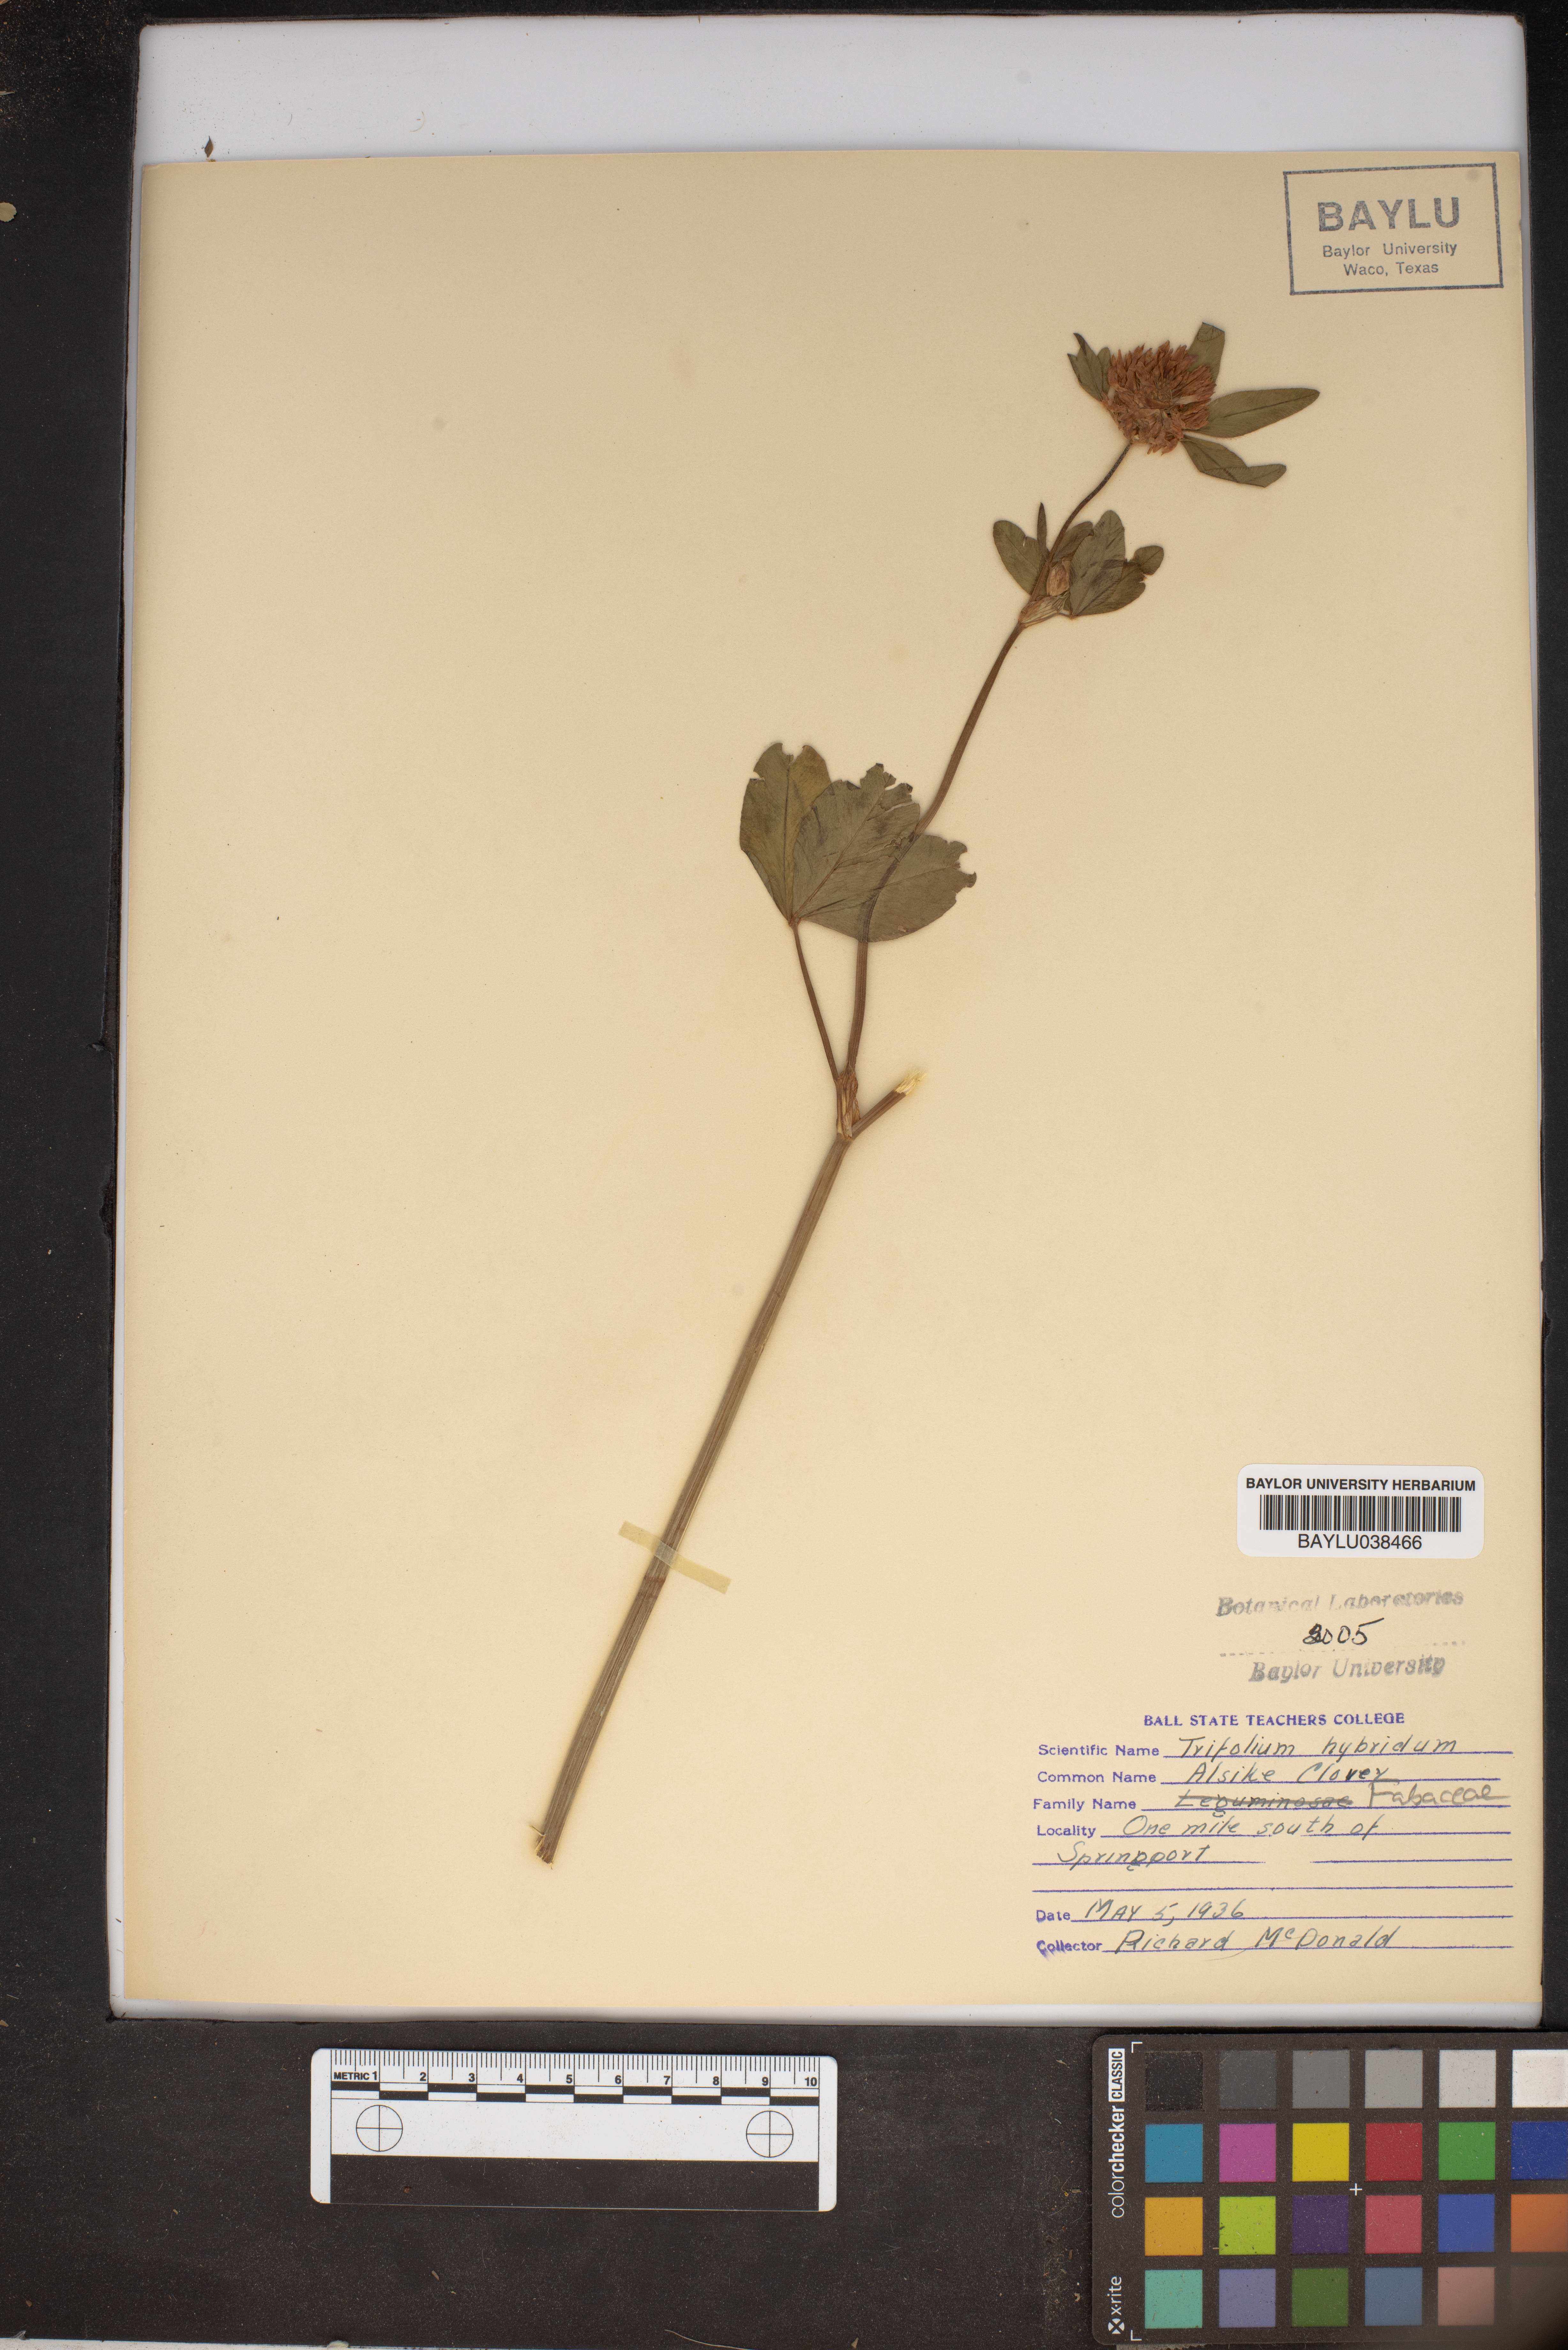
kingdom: Plantae
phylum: Tracheophyta
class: Magnoliopsida
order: Fabales
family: Fabaceae
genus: Trifolium
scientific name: Trifolium hybridum
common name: Alsike clover
